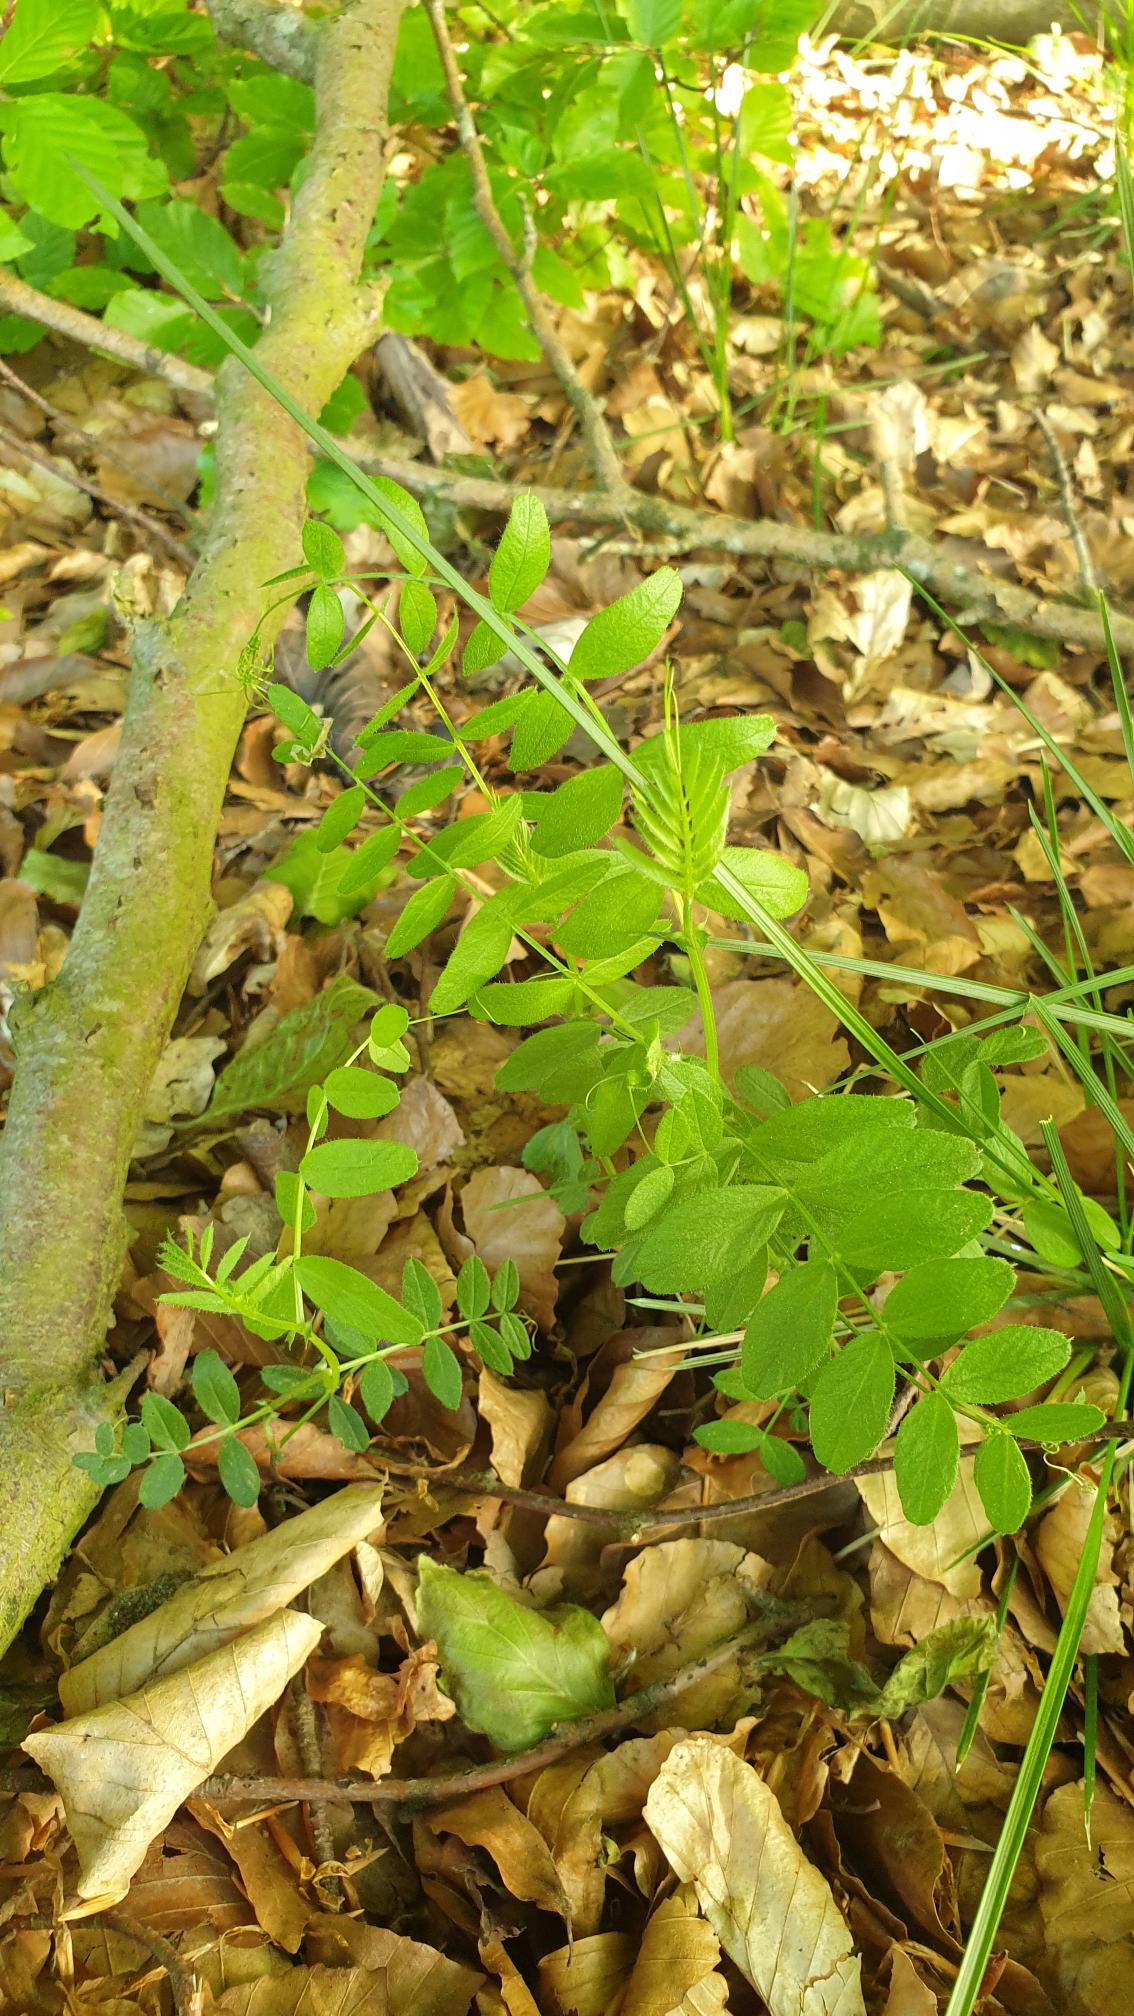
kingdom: Plantae
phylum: Tracheophyta
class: Magnoliopsida
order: Fabales
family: Fabaceae
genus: Vicia
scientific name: Vicia sepium
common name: Gærde-vikke
